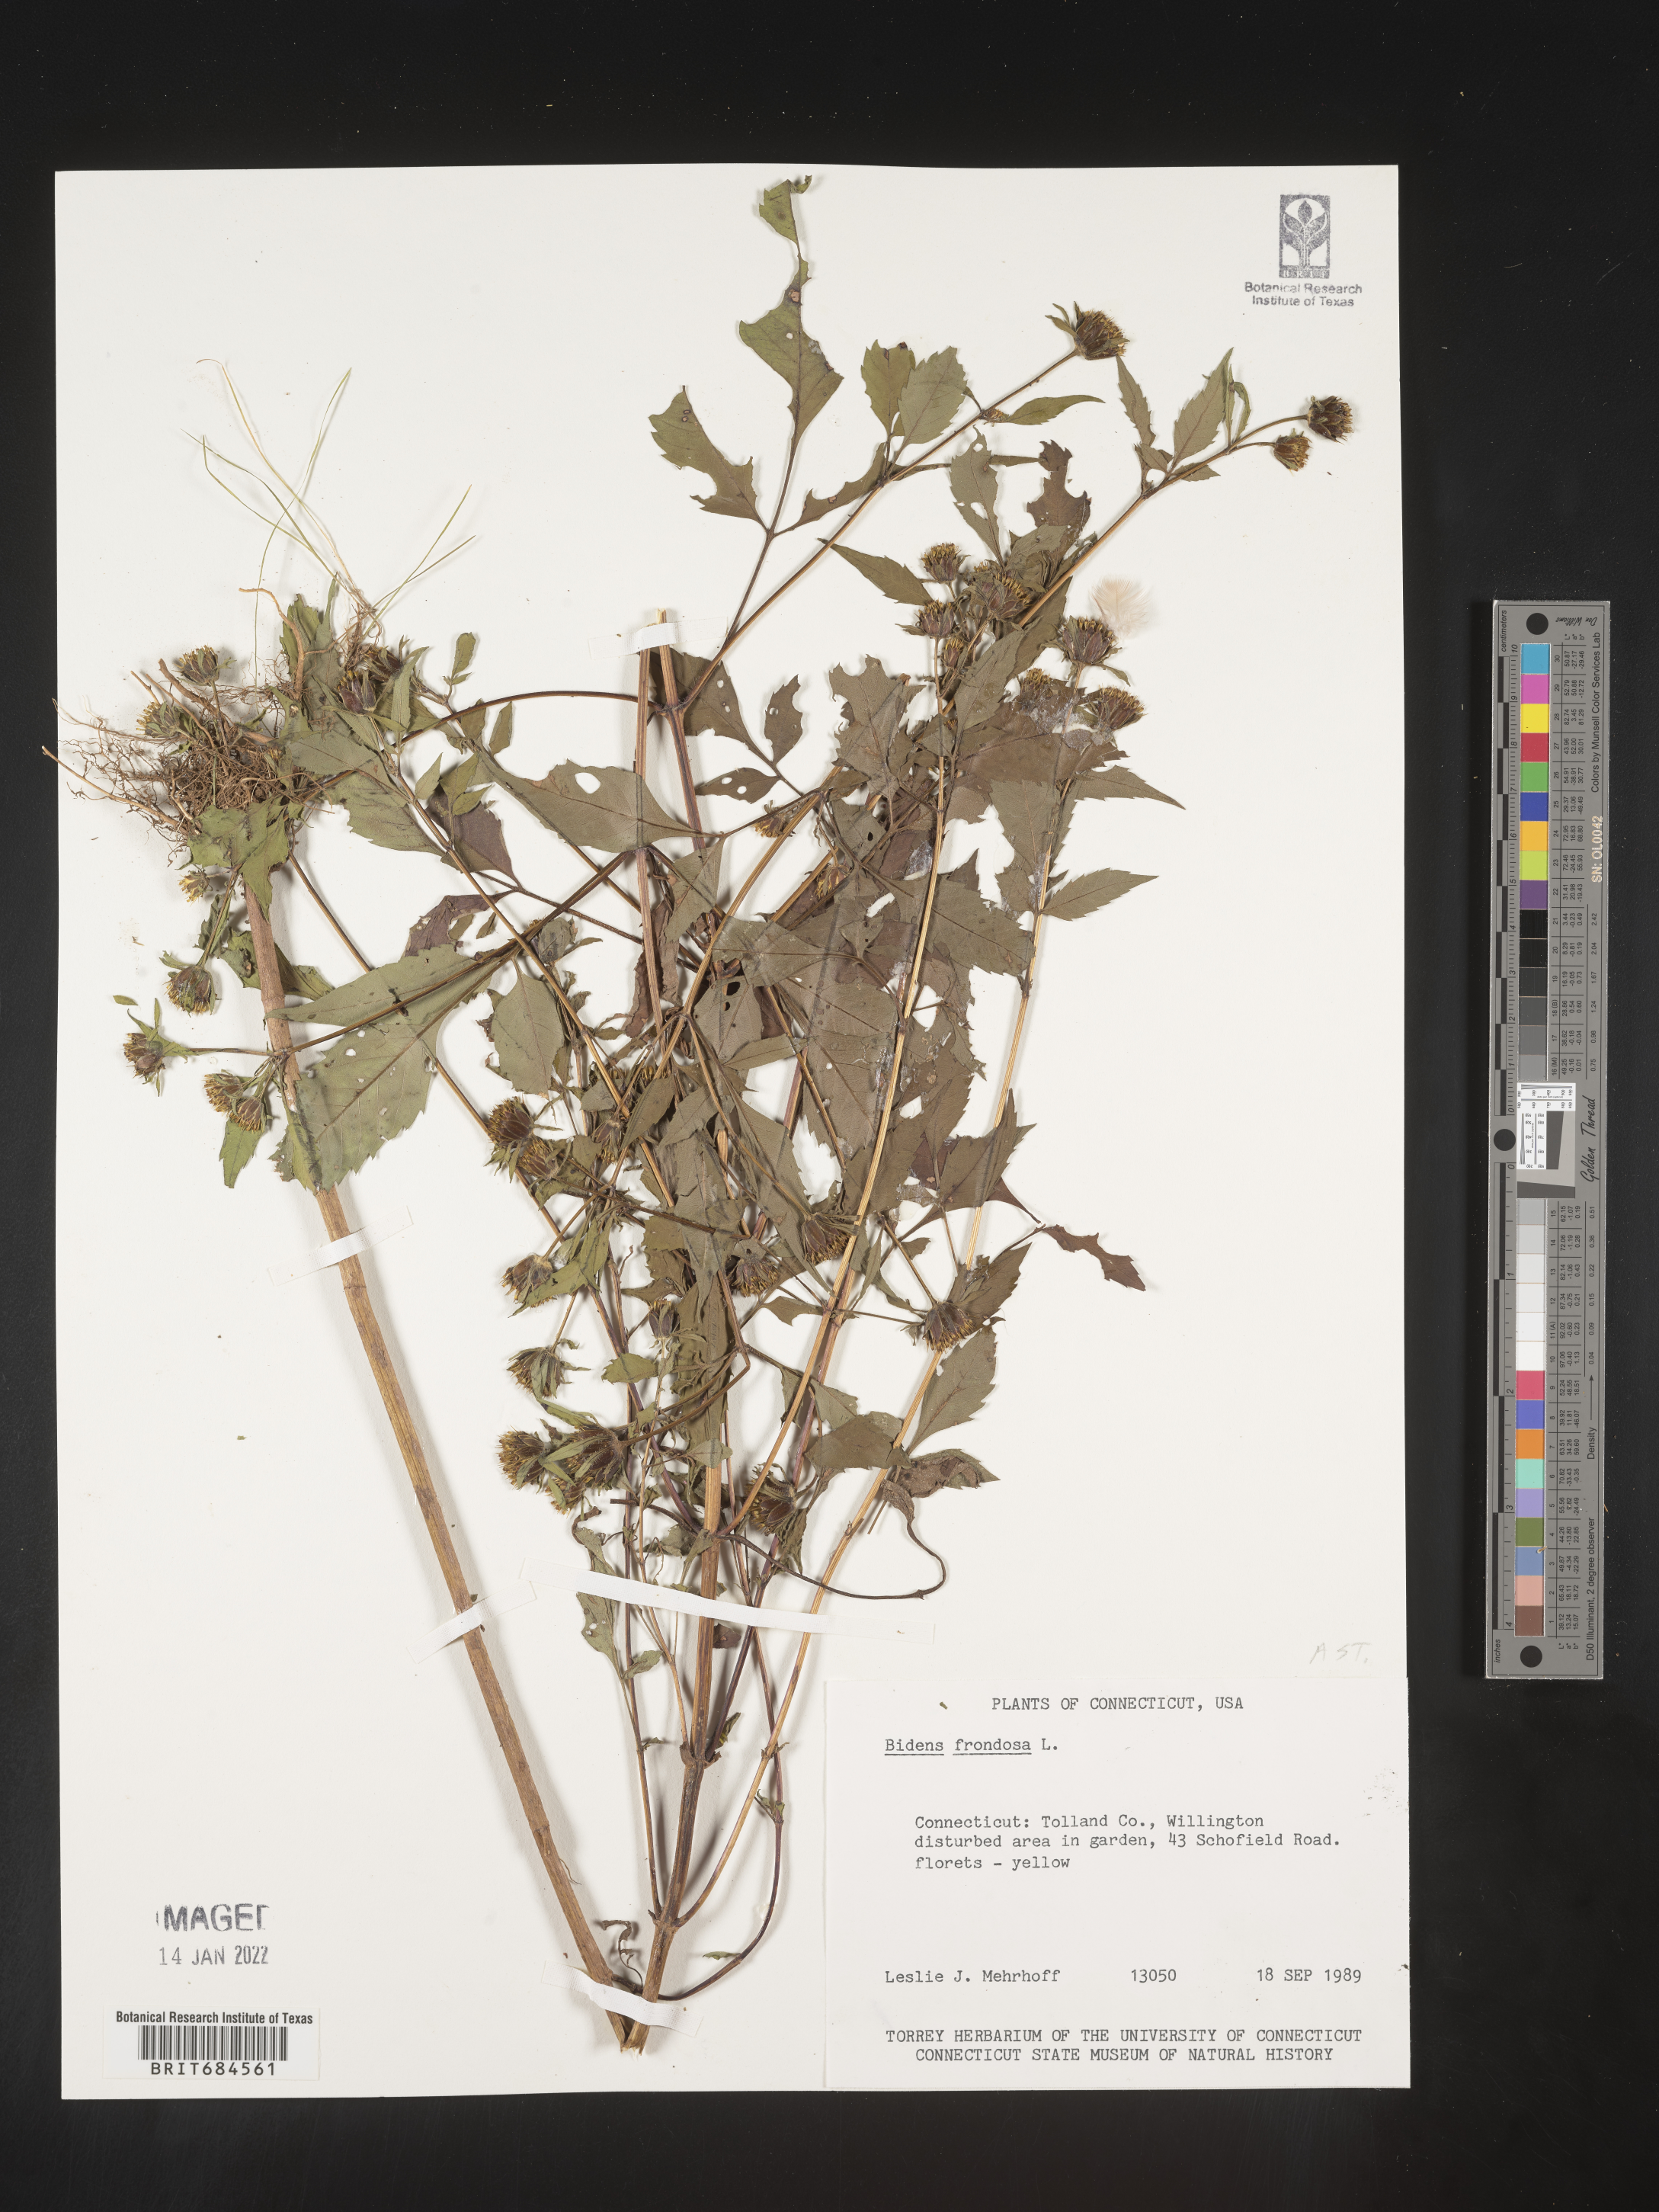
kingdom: Plantae
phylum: Tracheophyta
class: Magnoliopsida
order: Asterales
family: Asteraceae
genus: Bidens
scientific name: Bidens frondosa
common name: Beggarticks
